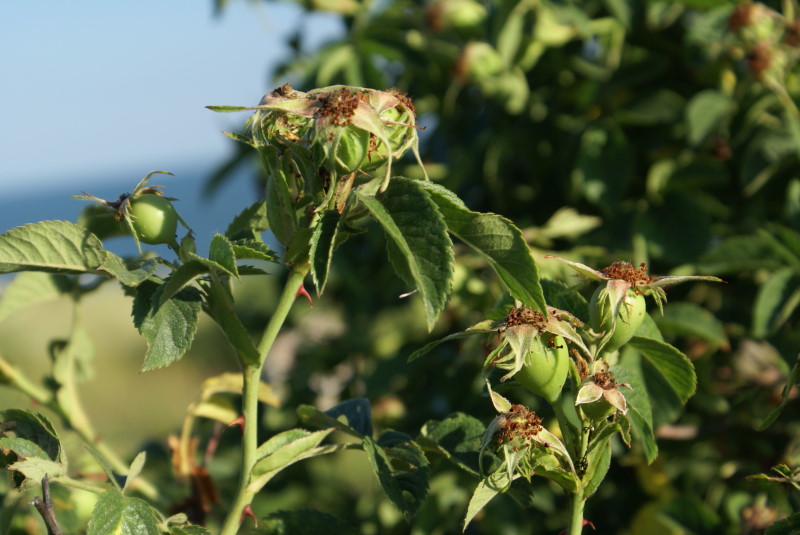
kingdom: Plantae
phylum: Tracheophyta
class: Magnoliopsida
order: Rosales
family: Rosaceae
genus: Rosa
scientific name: Rosa
